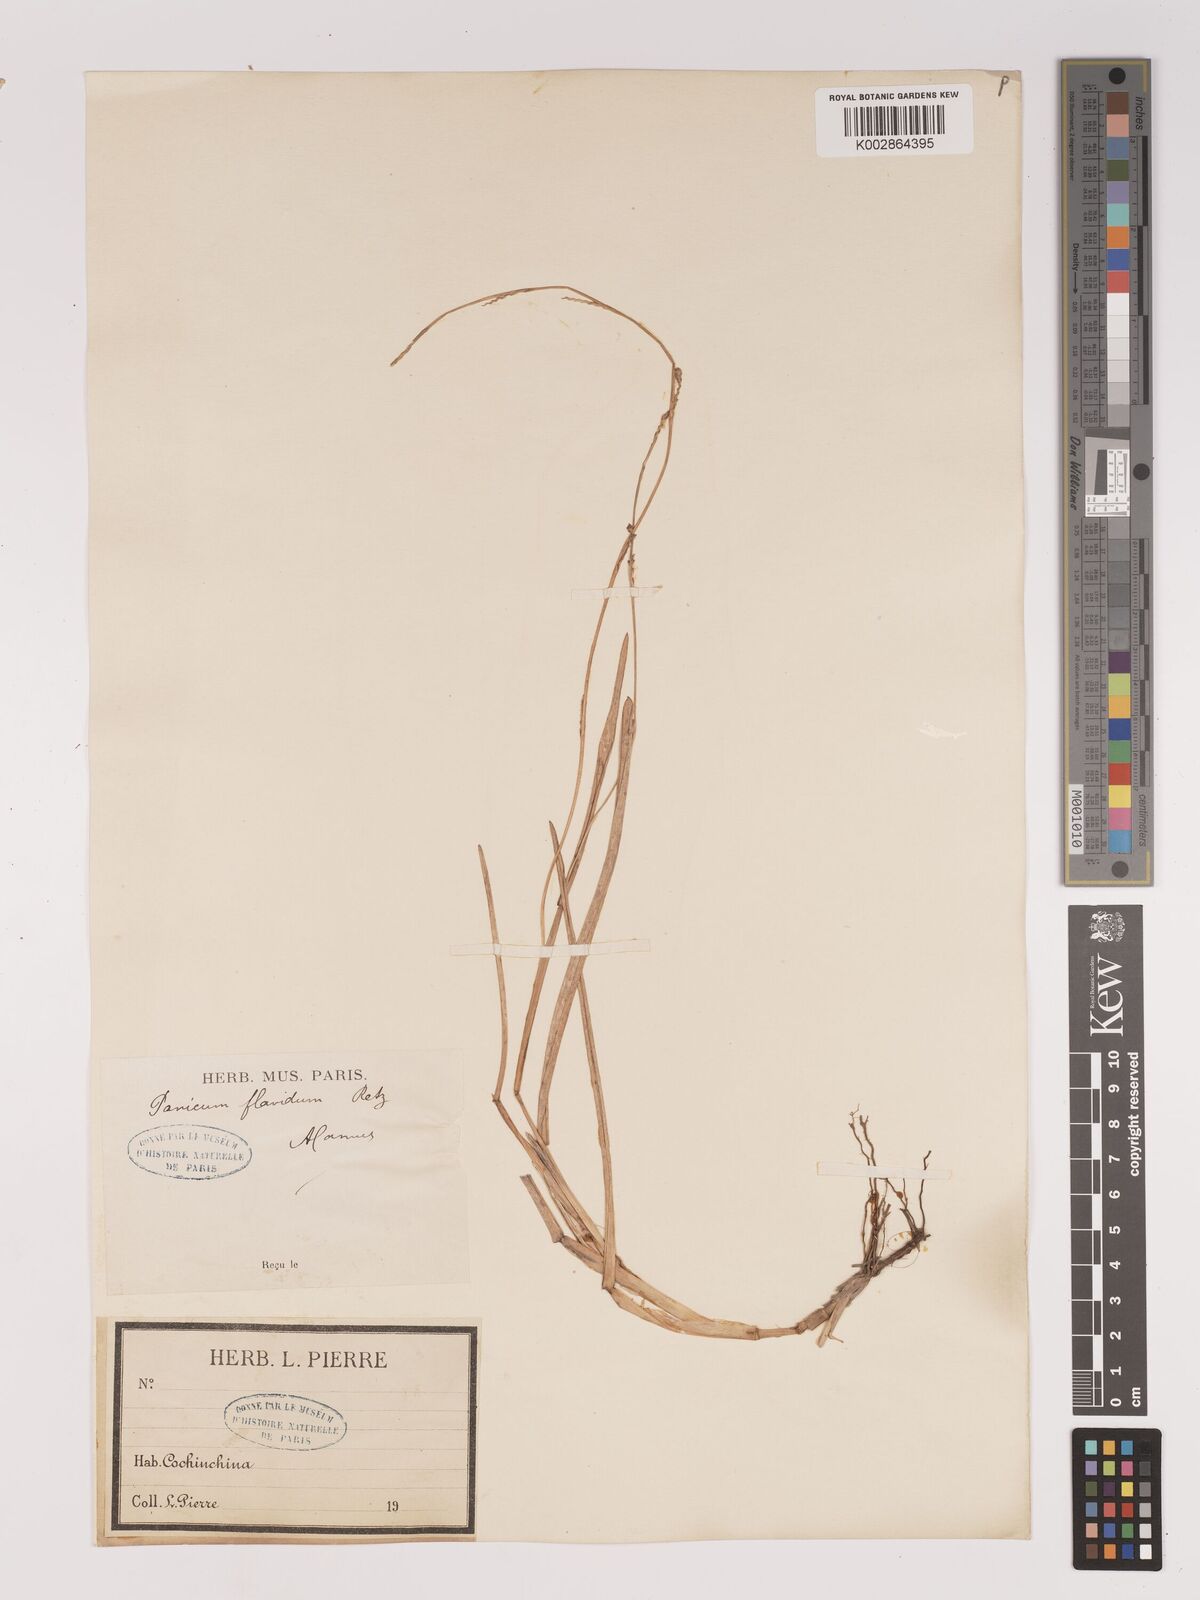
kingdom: Plantae
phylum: Tracheophyta
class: Liliopsida
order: Poales
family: Poaceae
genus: Setaria
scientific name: Setaria flavida
